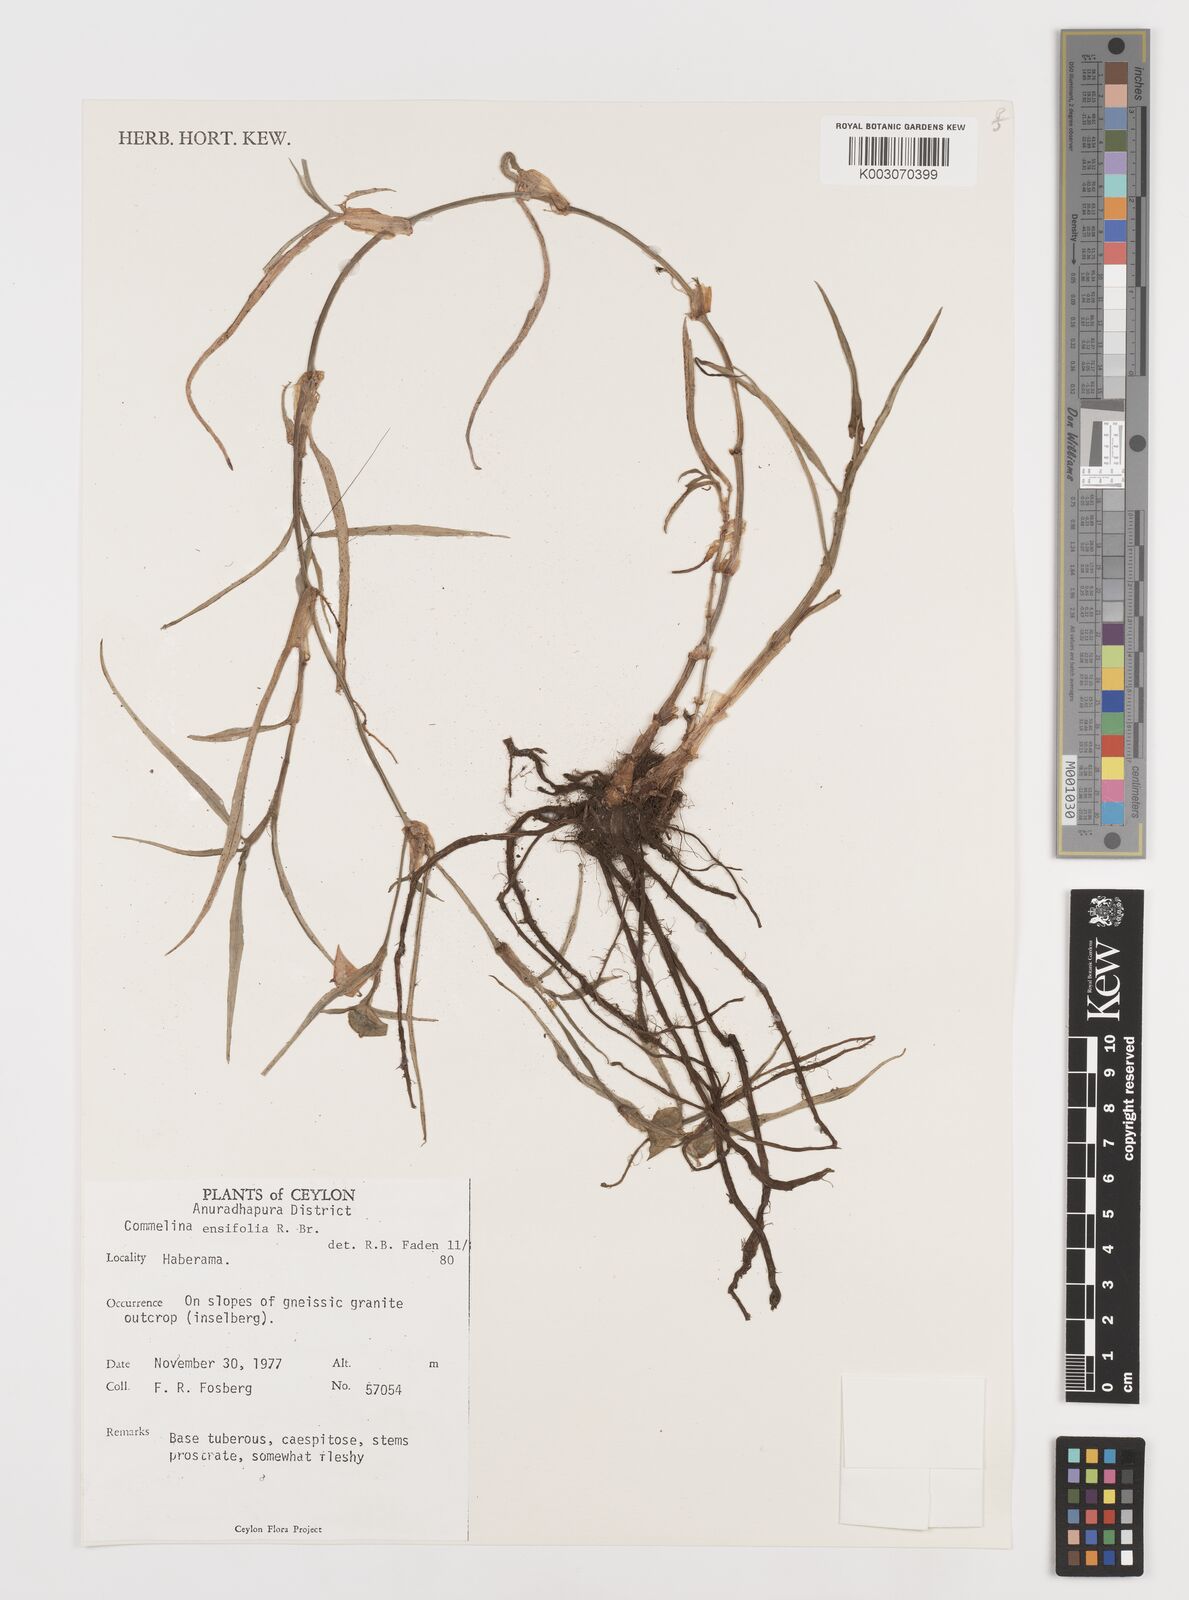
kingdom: Plantae
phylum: Tracheophyta
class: Liliopsida
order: Commelinales
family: Commelinaceae
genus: Commelina
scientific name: Commelina ensifolia
